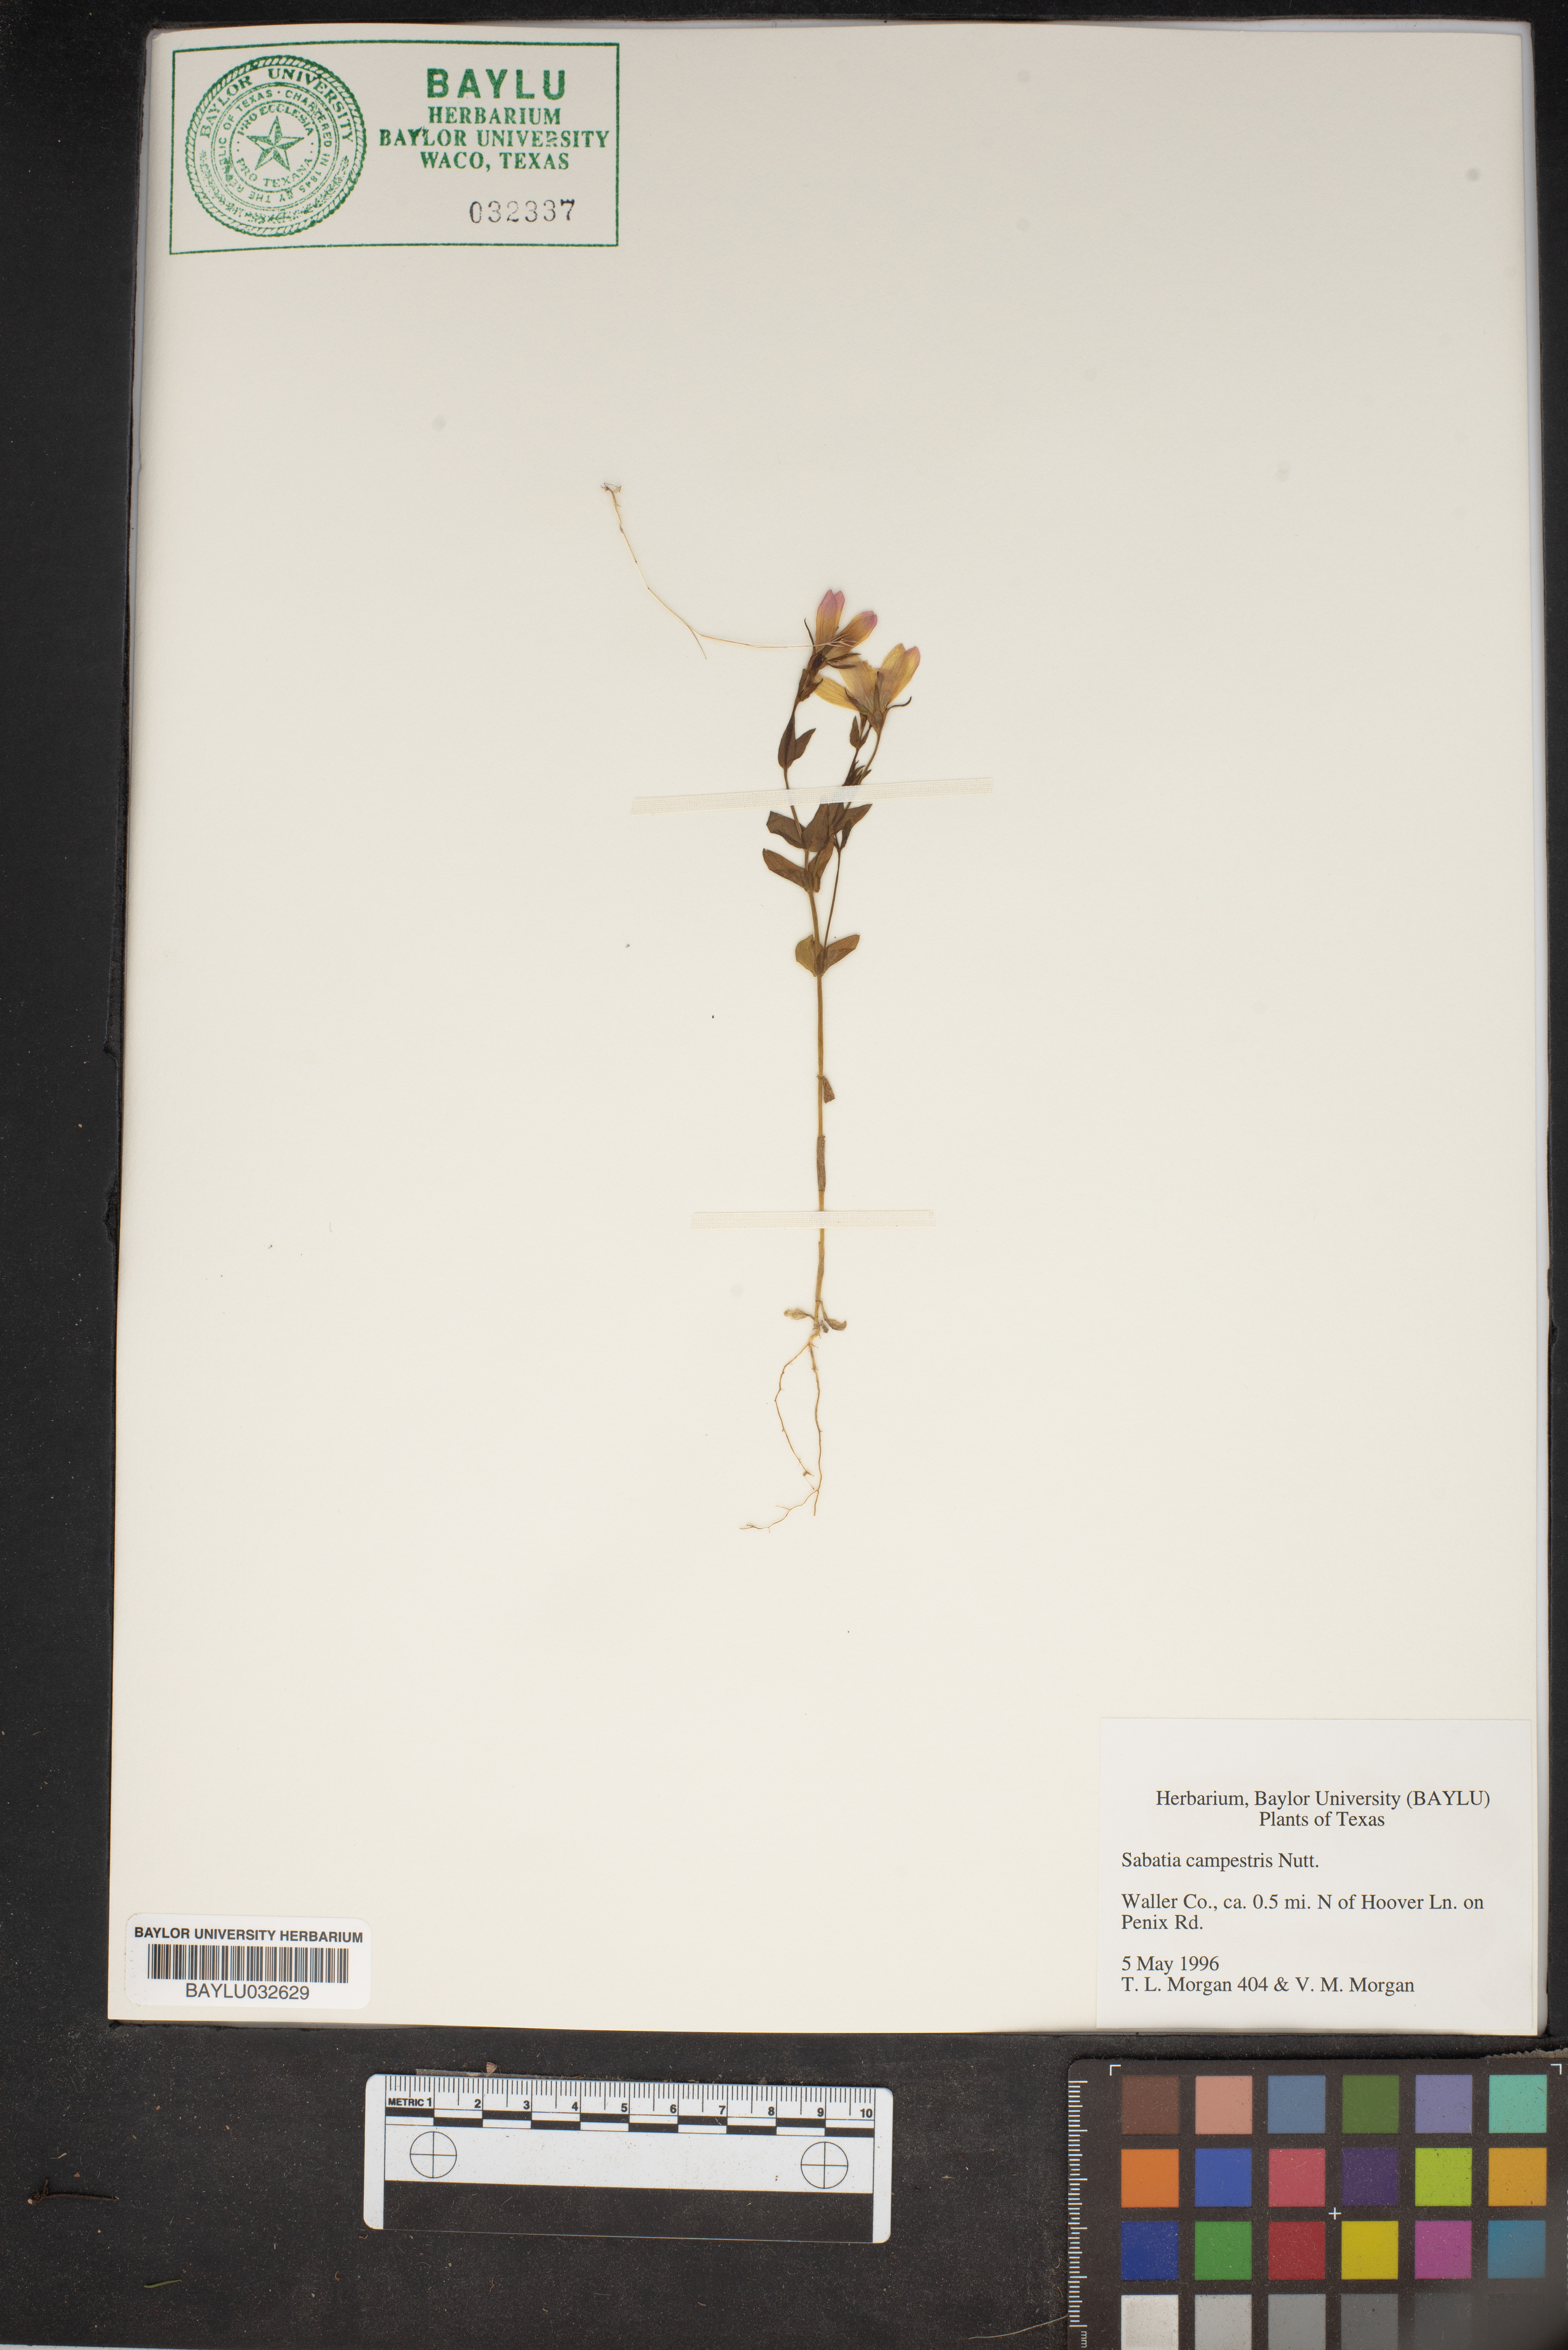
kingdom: Plantae
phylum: Tracheophyta
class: Magnoliopsida
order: Gentianales
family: Gentianaceae
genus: Sabatia
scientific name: Sabatia campestris
